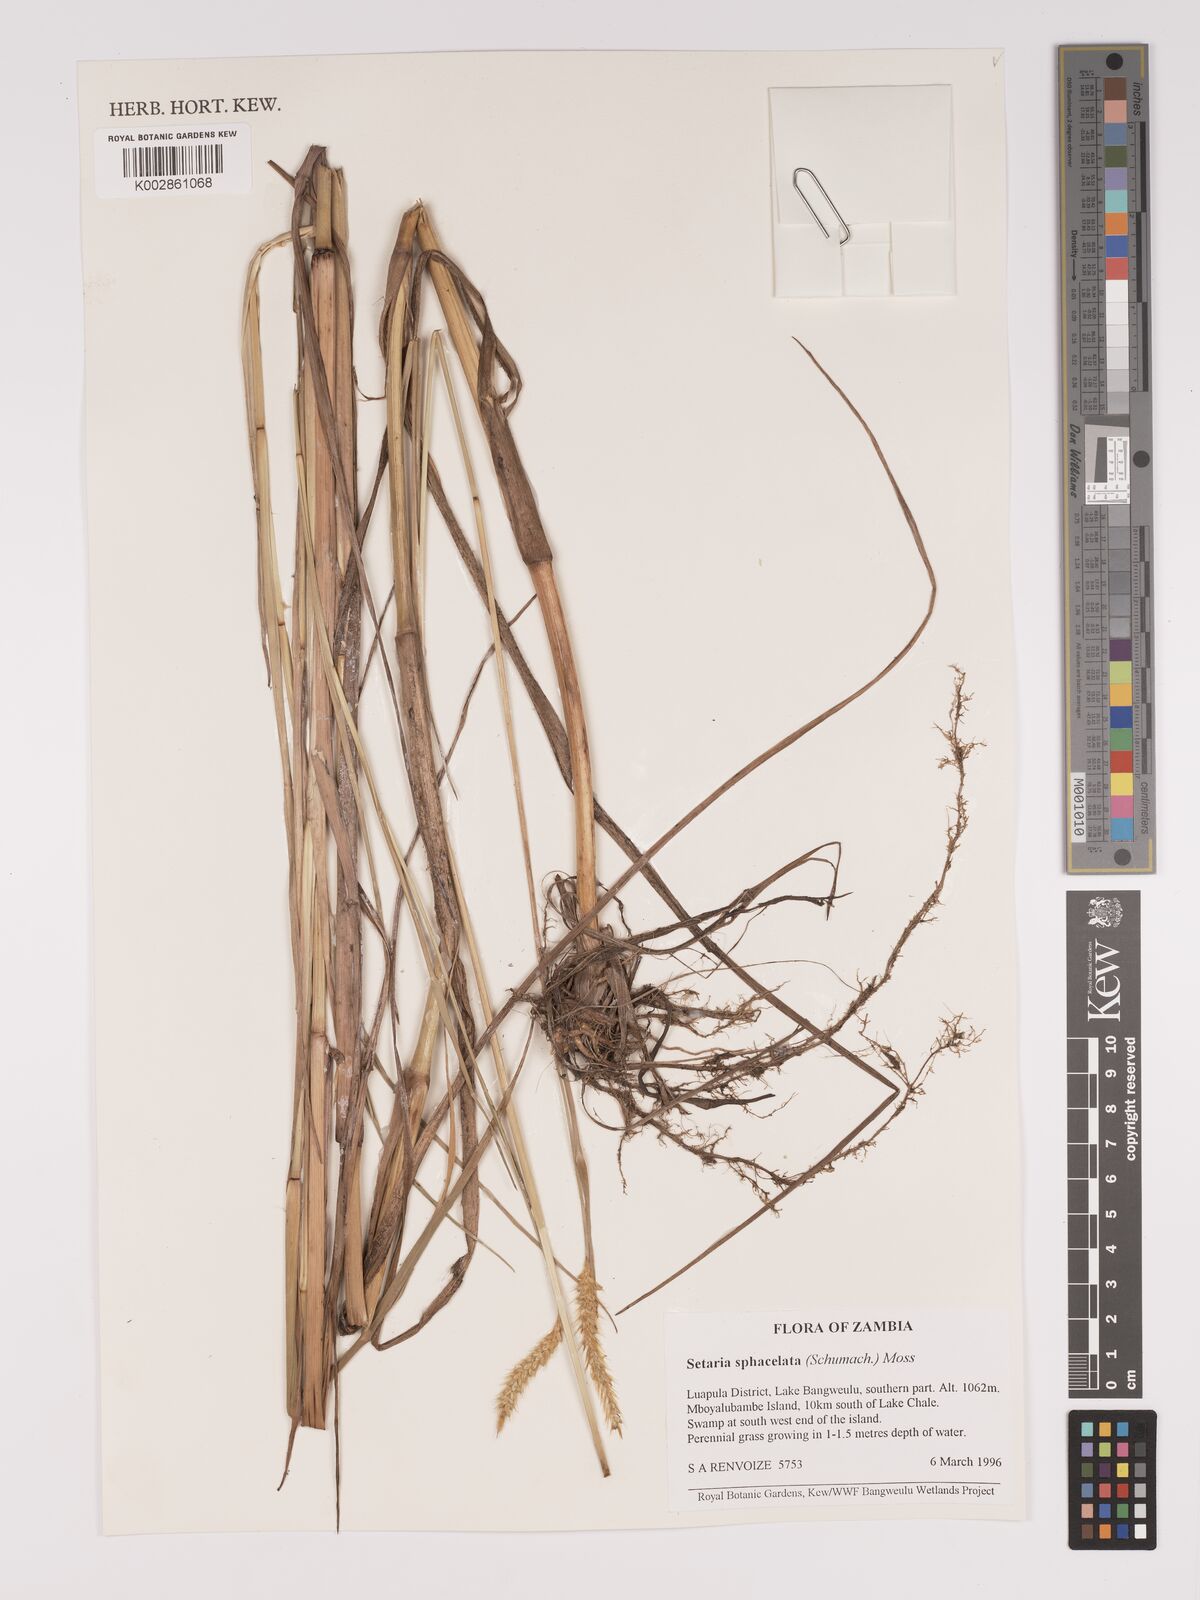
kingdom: Plantae
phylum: Tracheophyta
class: Liliopsida
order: Poales
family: Poaceae
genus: Setaria
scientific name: Setaria sphacelata
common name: African bristlegrass
